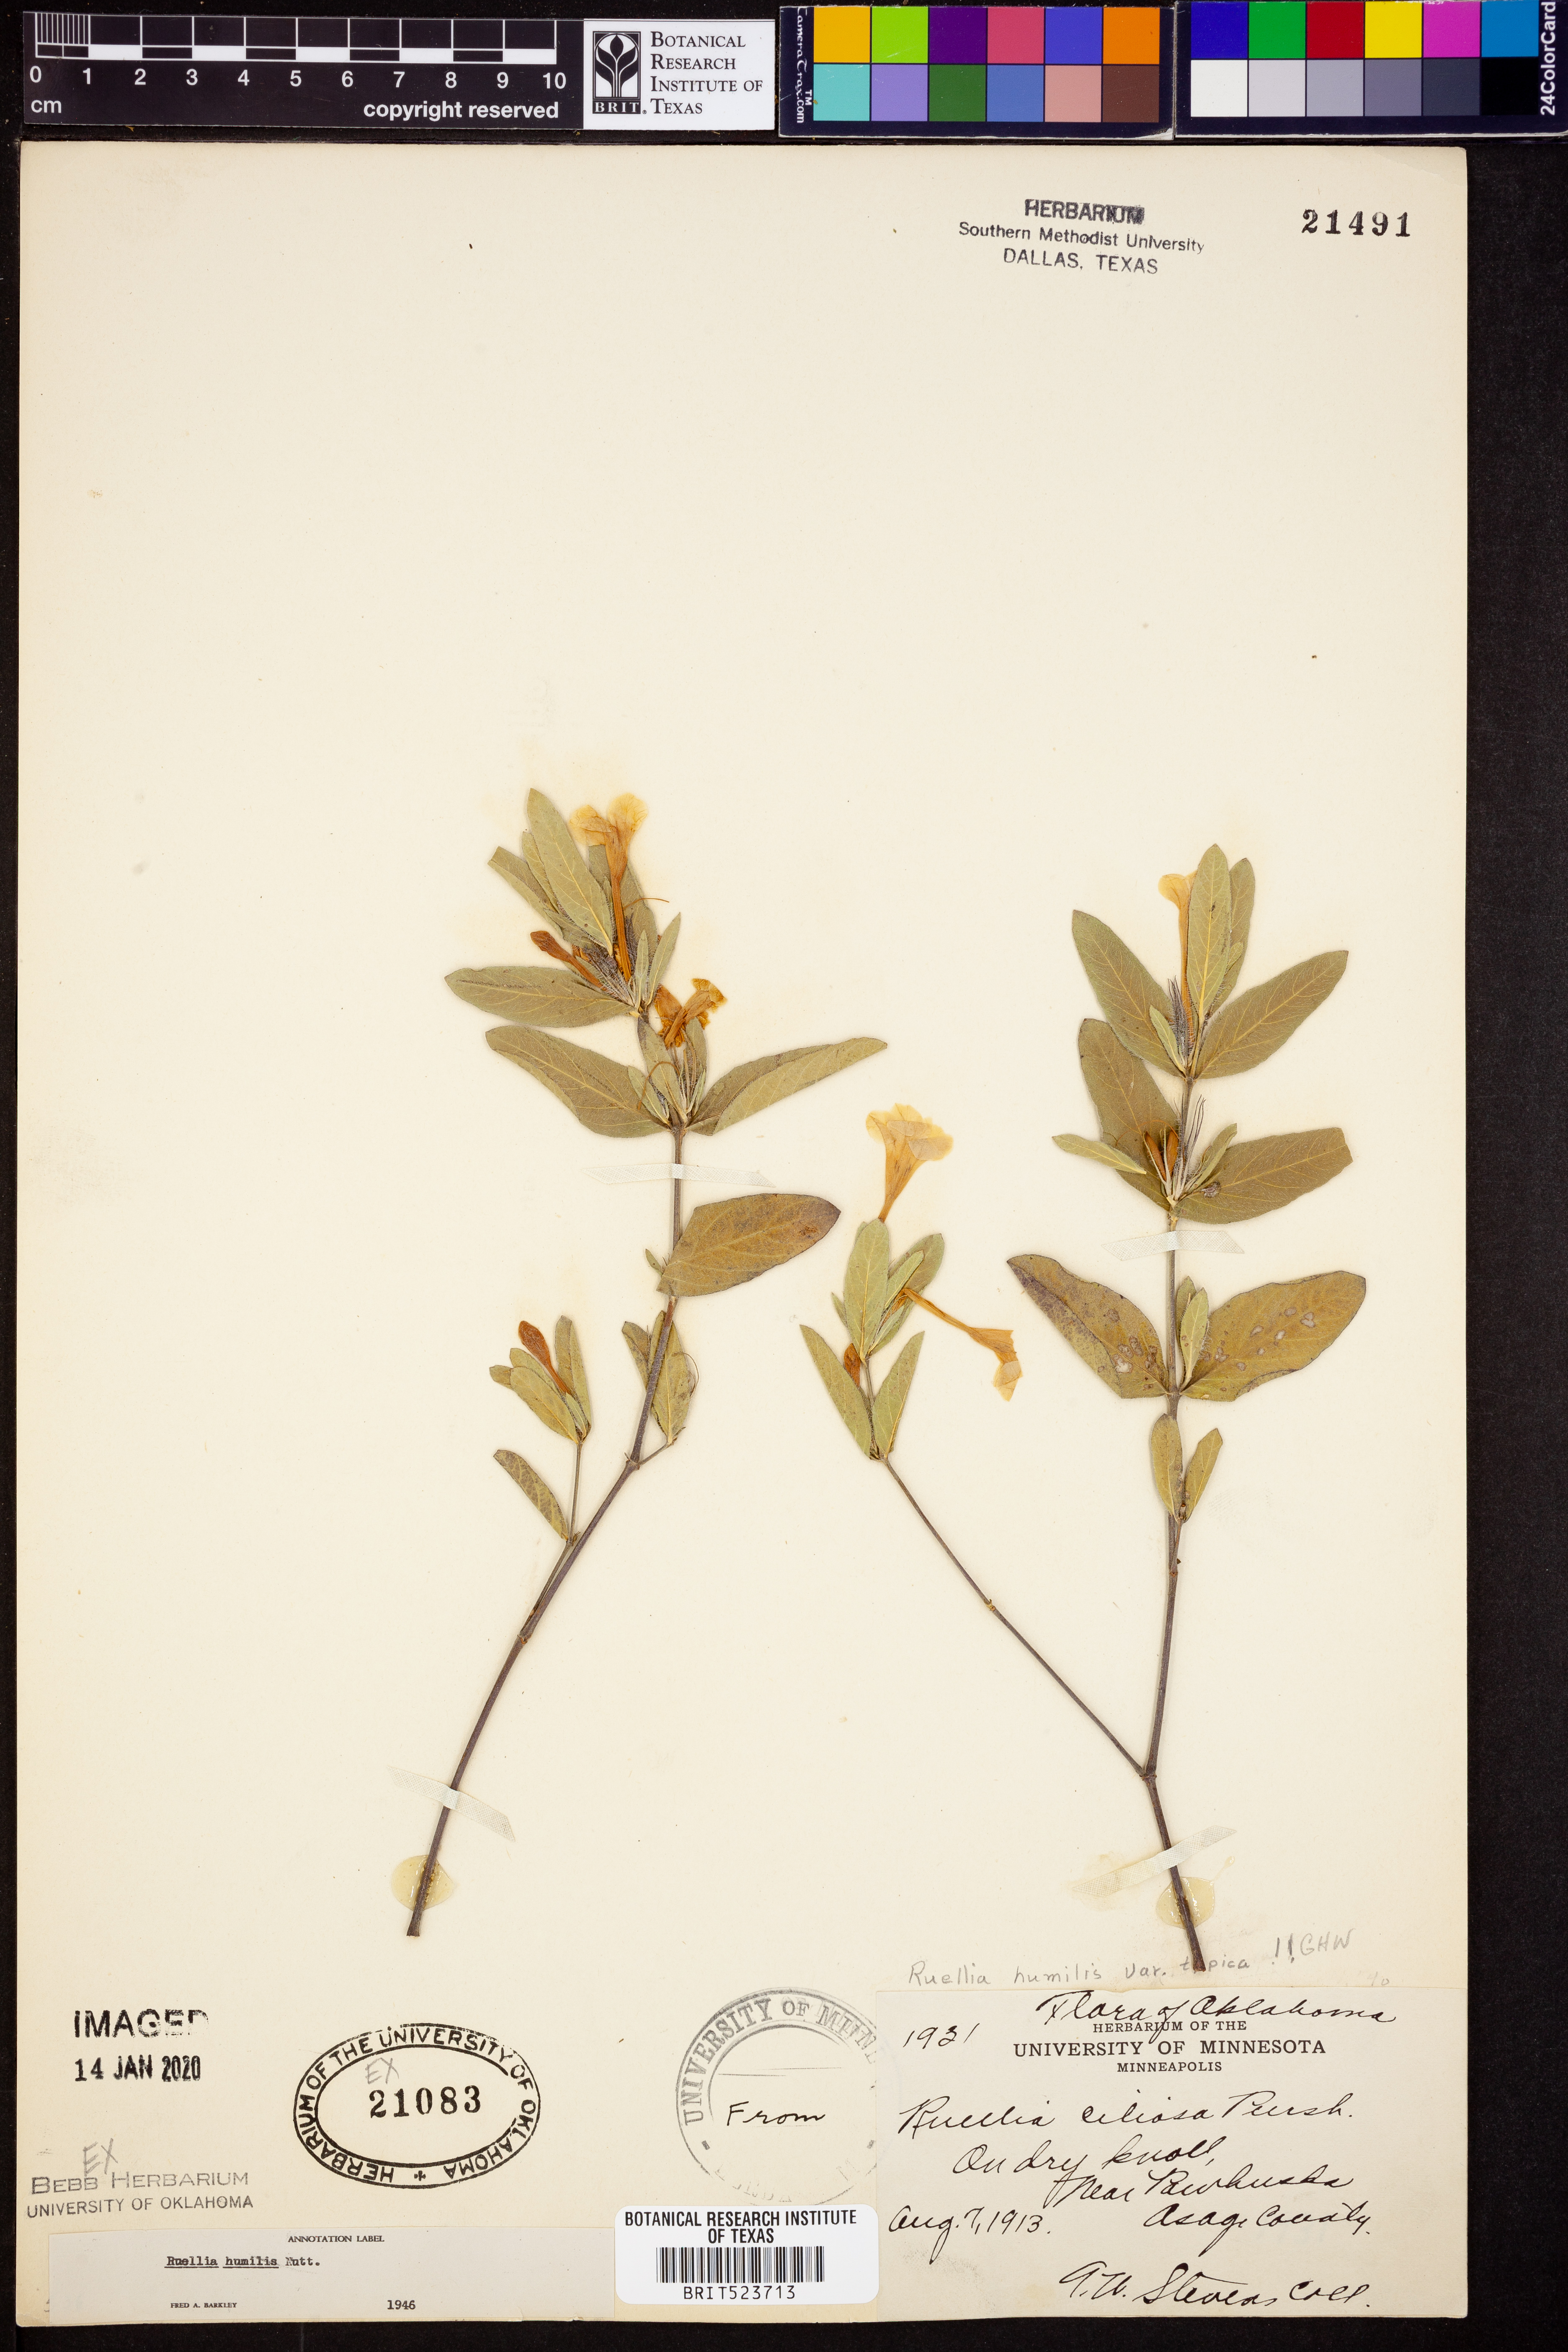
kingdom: Plantae
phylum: Tracheophyta
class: Magnoliopsida
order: Lamiales
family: Acanthaceae
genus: Ruellia
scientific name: Ruellia humboldtiana
